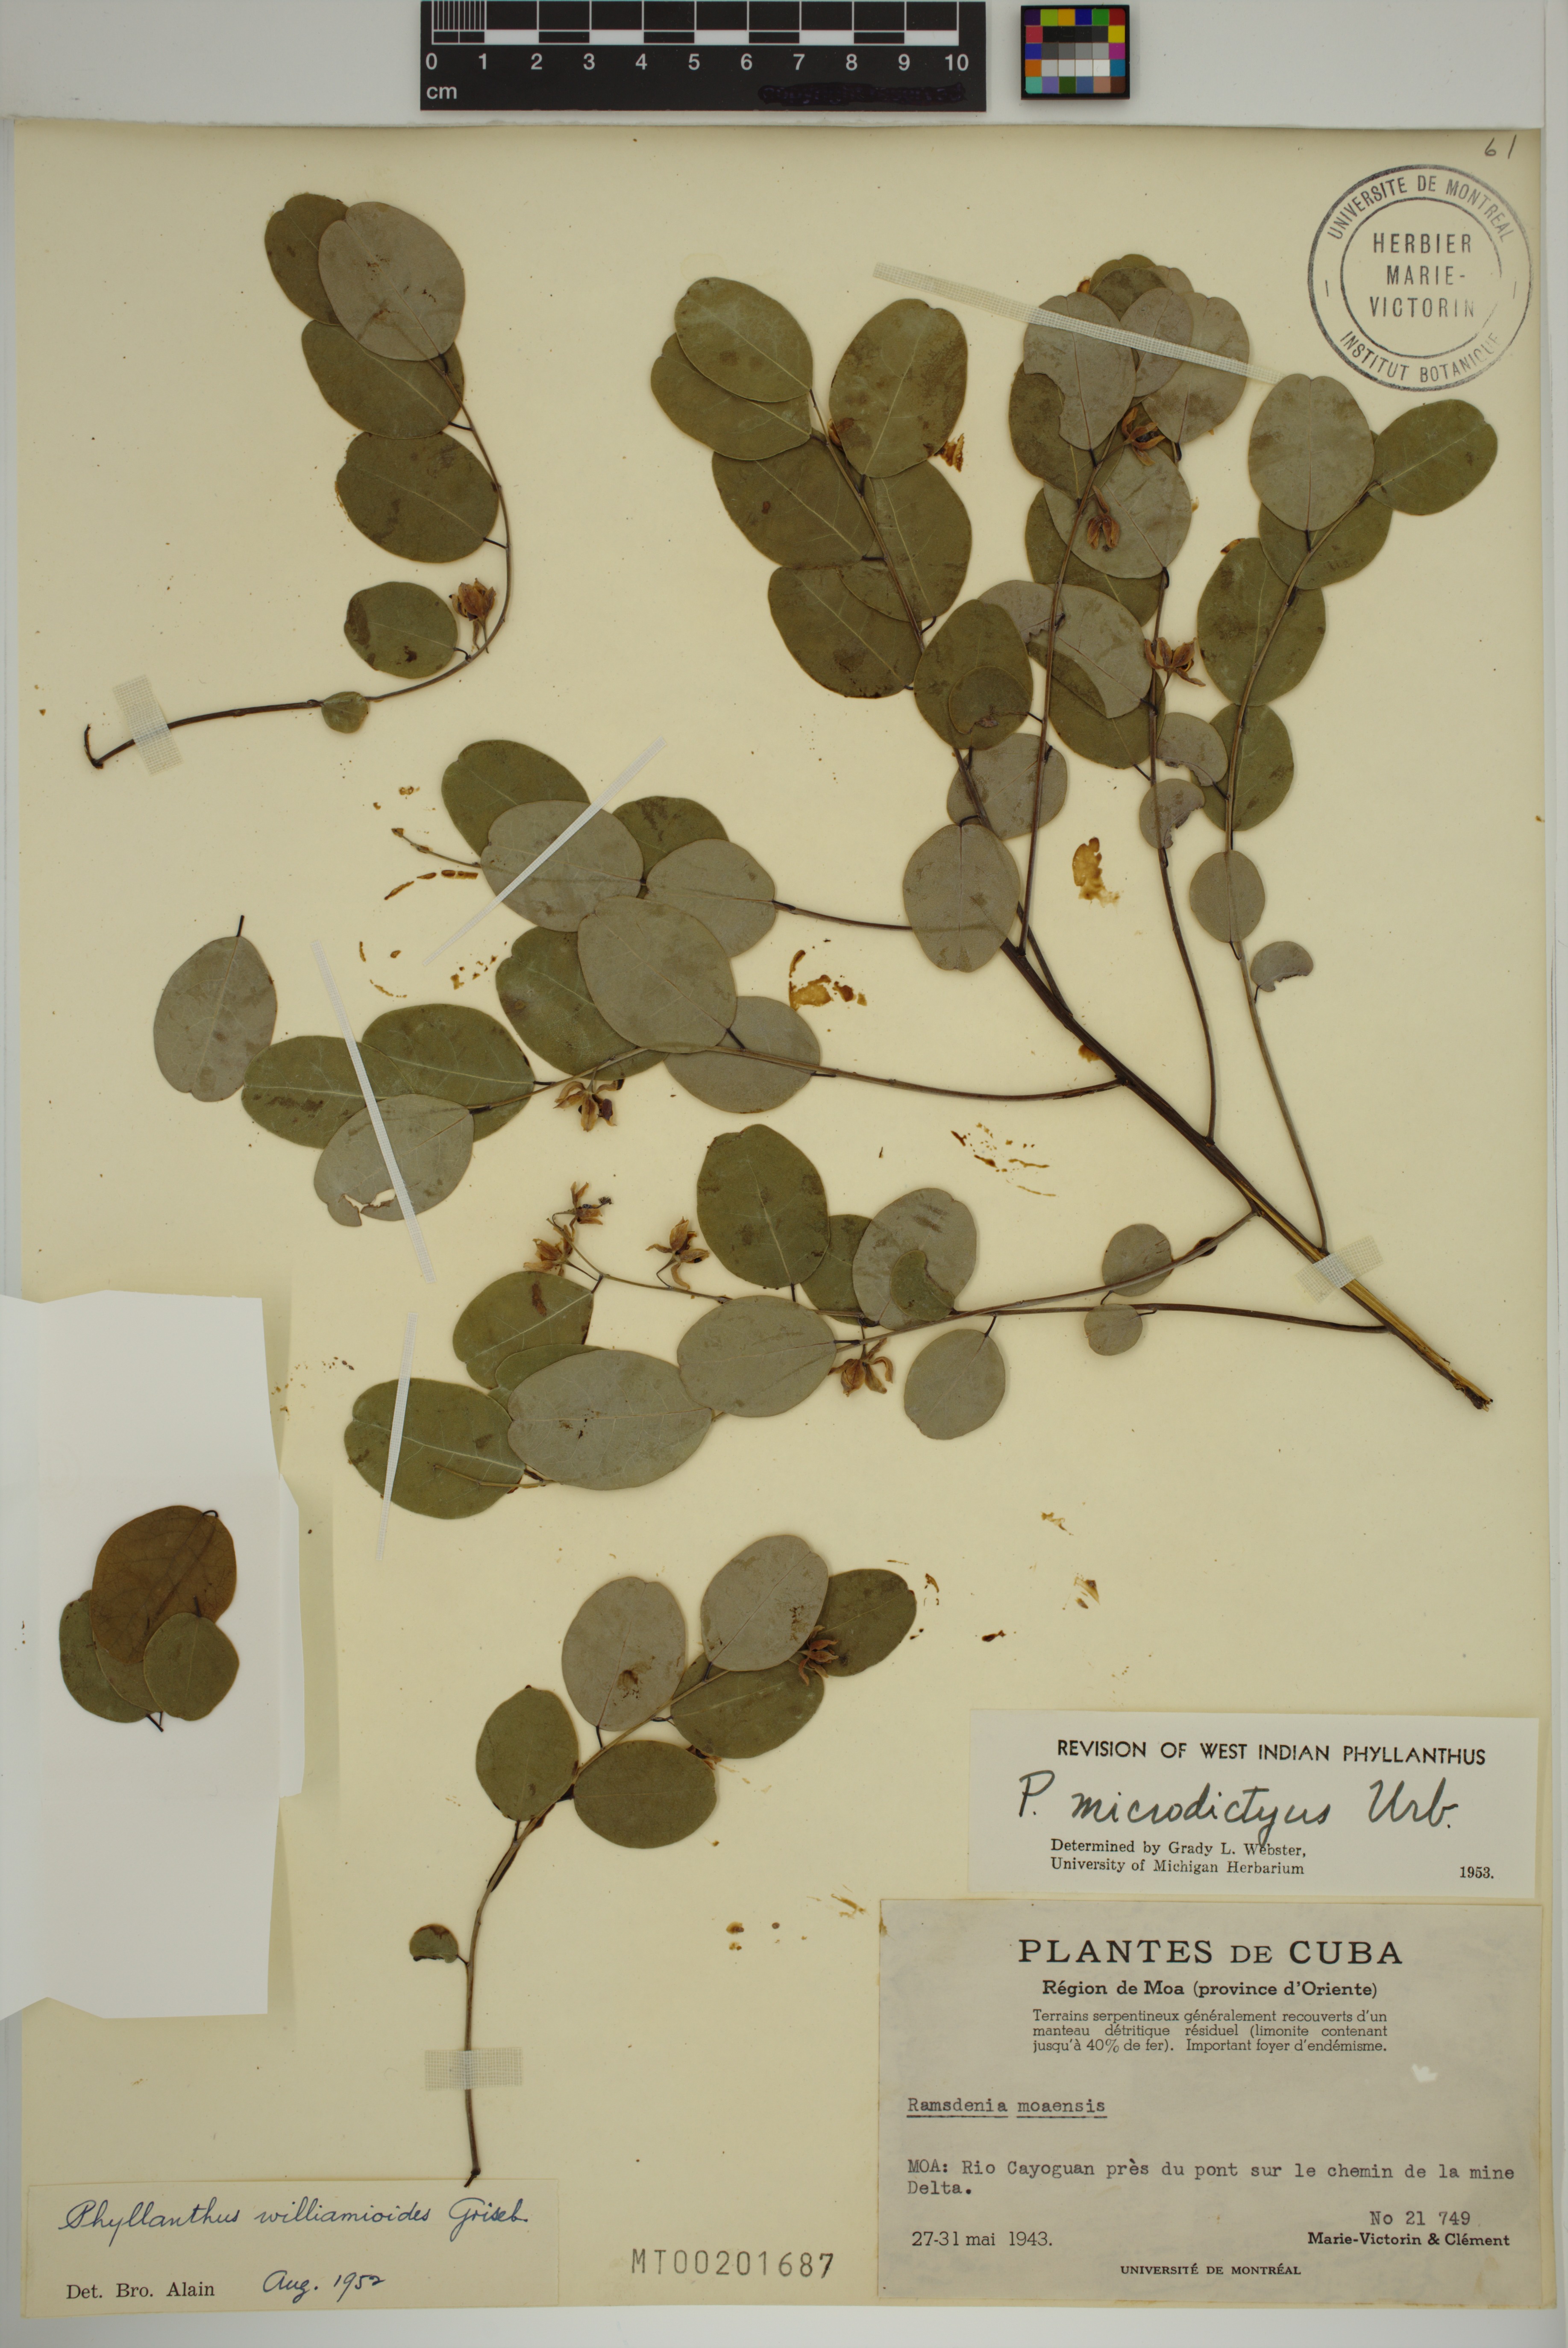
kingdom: Plantae
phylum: Tracheophyta
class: Magnoliopsida
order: Malpighiales
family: Phyllanthaceae
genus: Phyllanthus
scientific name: Phyllanthus microdictyus
